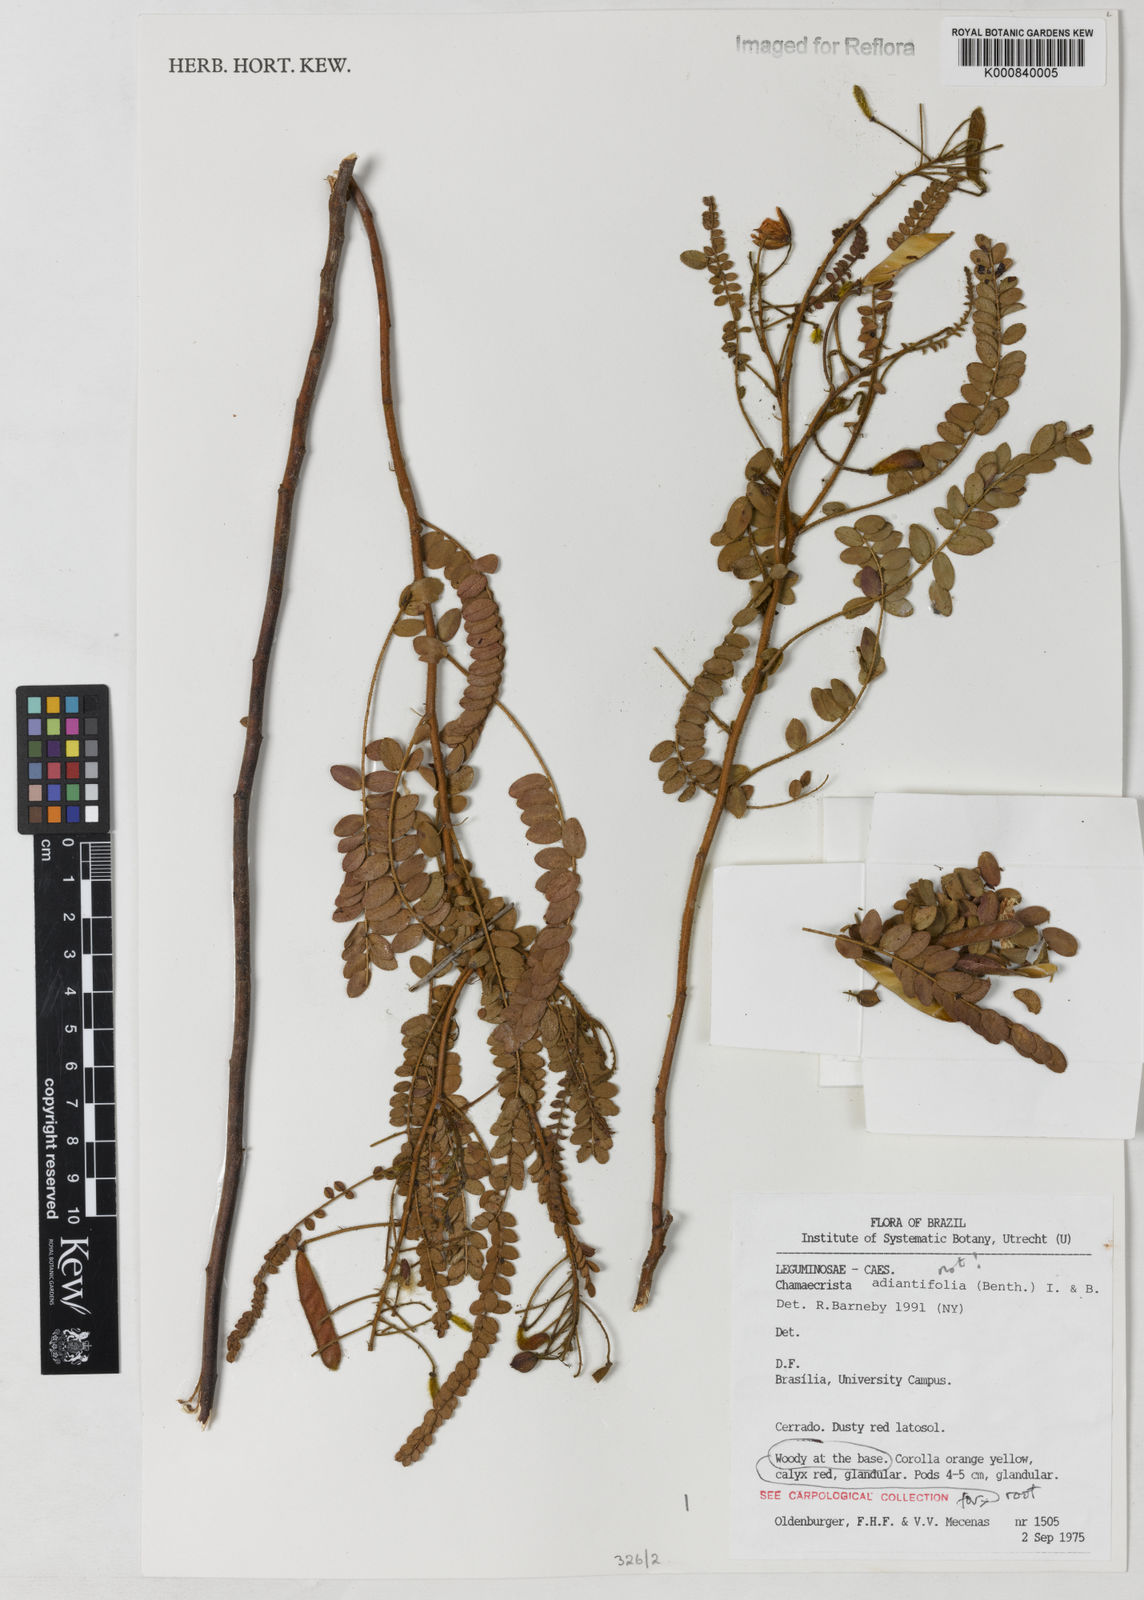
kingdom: Plantae
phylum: Tracheophyta
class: Magnoliopsida
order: Fabales
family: Fabaceae
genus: Chamaecrista
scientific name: Chamaecrista filicifolia
